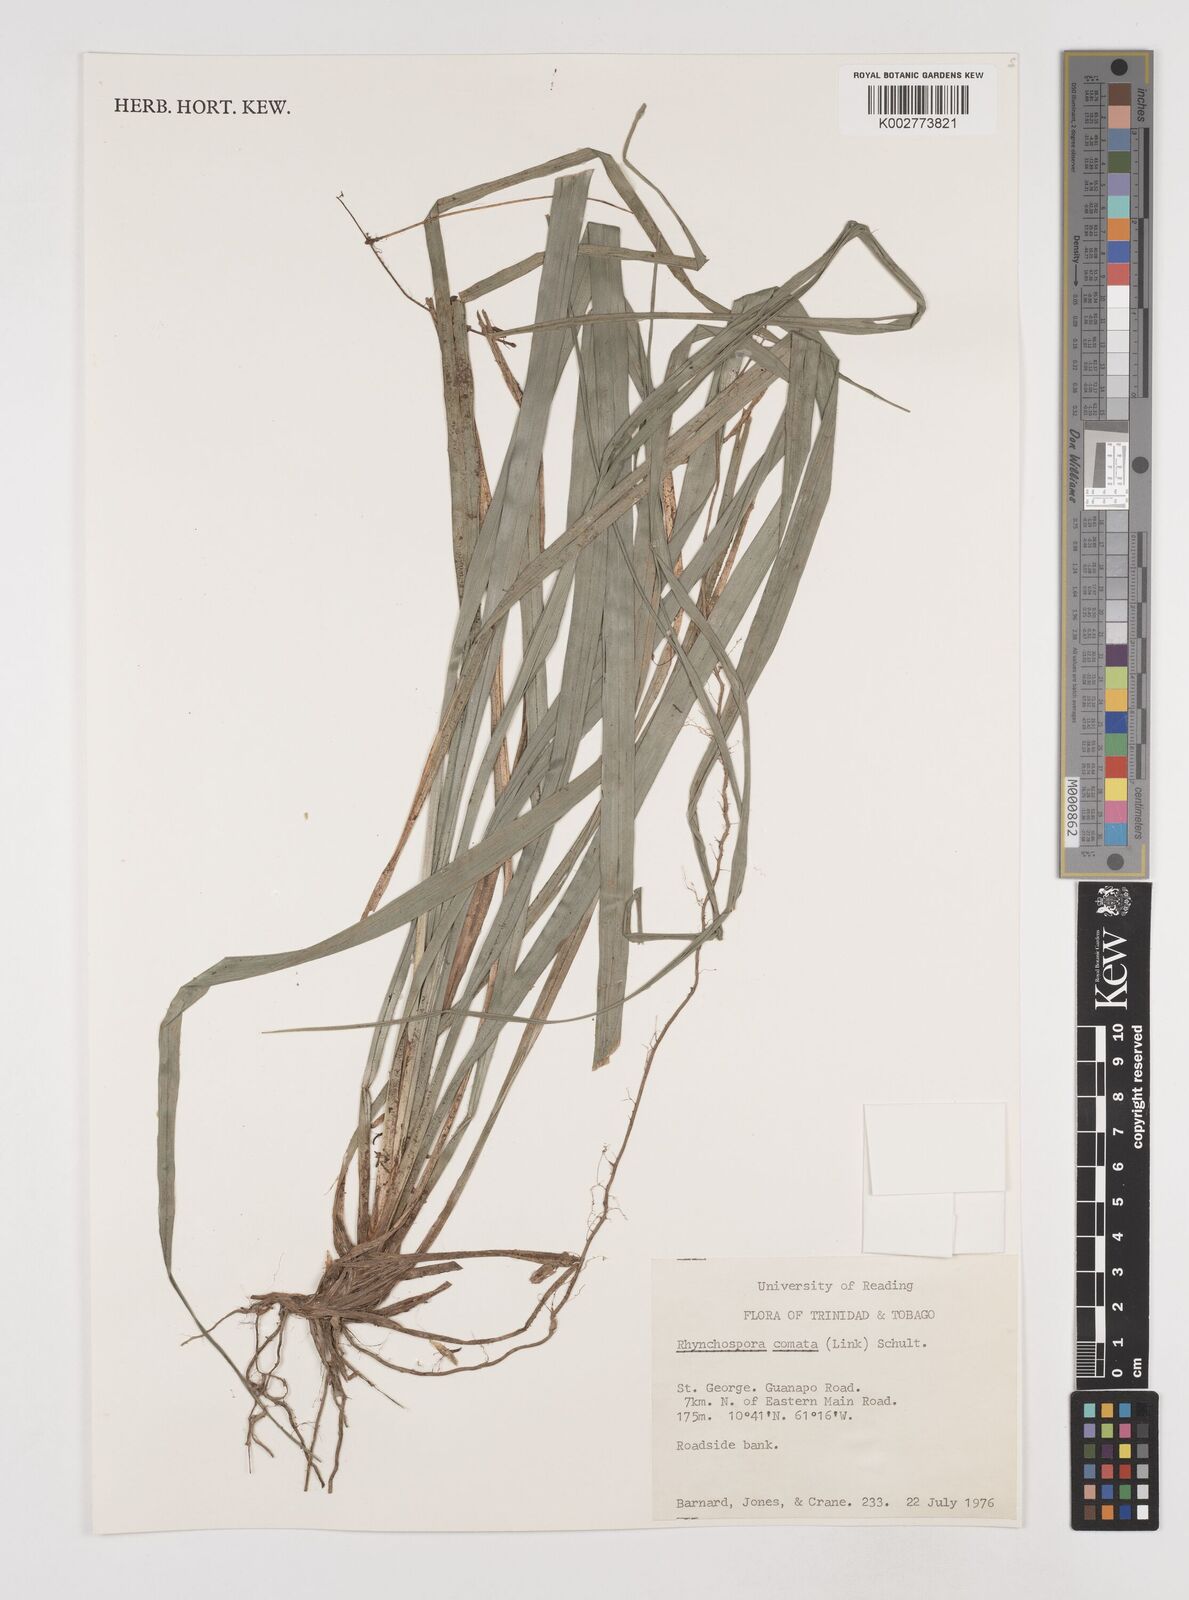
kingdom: Plantae
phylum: Tracheophyta
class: Liliopsida
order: Poales
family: Cyperaceae
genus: Rhynchospora
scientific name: Rhynchospora comata
